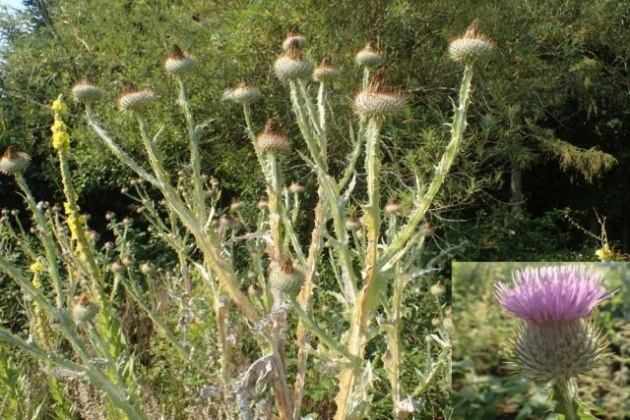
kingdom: Plantae
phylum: Tracheophyta
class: Magnoliopsida
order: Asterales
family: Asteraceae
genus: Onopordum
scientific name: Onopordum acanthium
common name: Æselfoder
